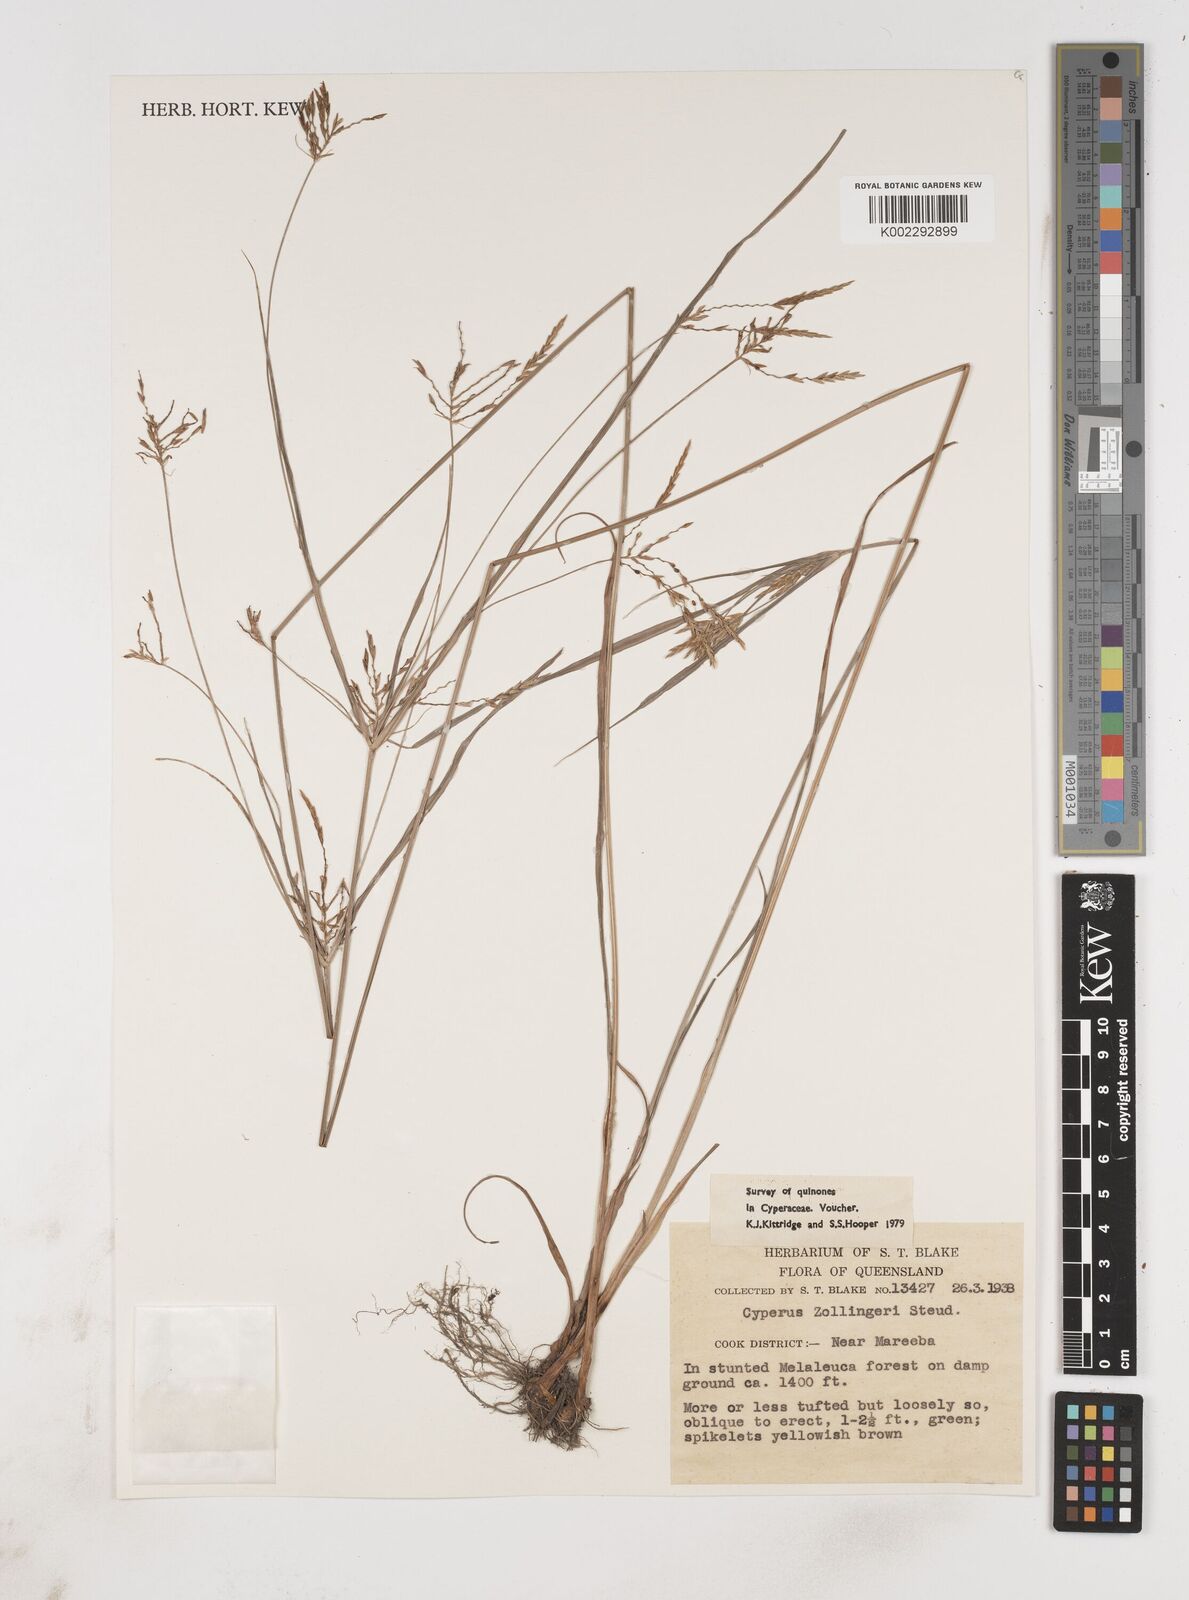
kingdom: Plantae
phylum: Tracheophyta
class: Liliopsida
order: Poales
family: Cyperaceae
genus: Cyperus
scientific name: Cyperus zollingeri
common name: Roadside flatsedge
